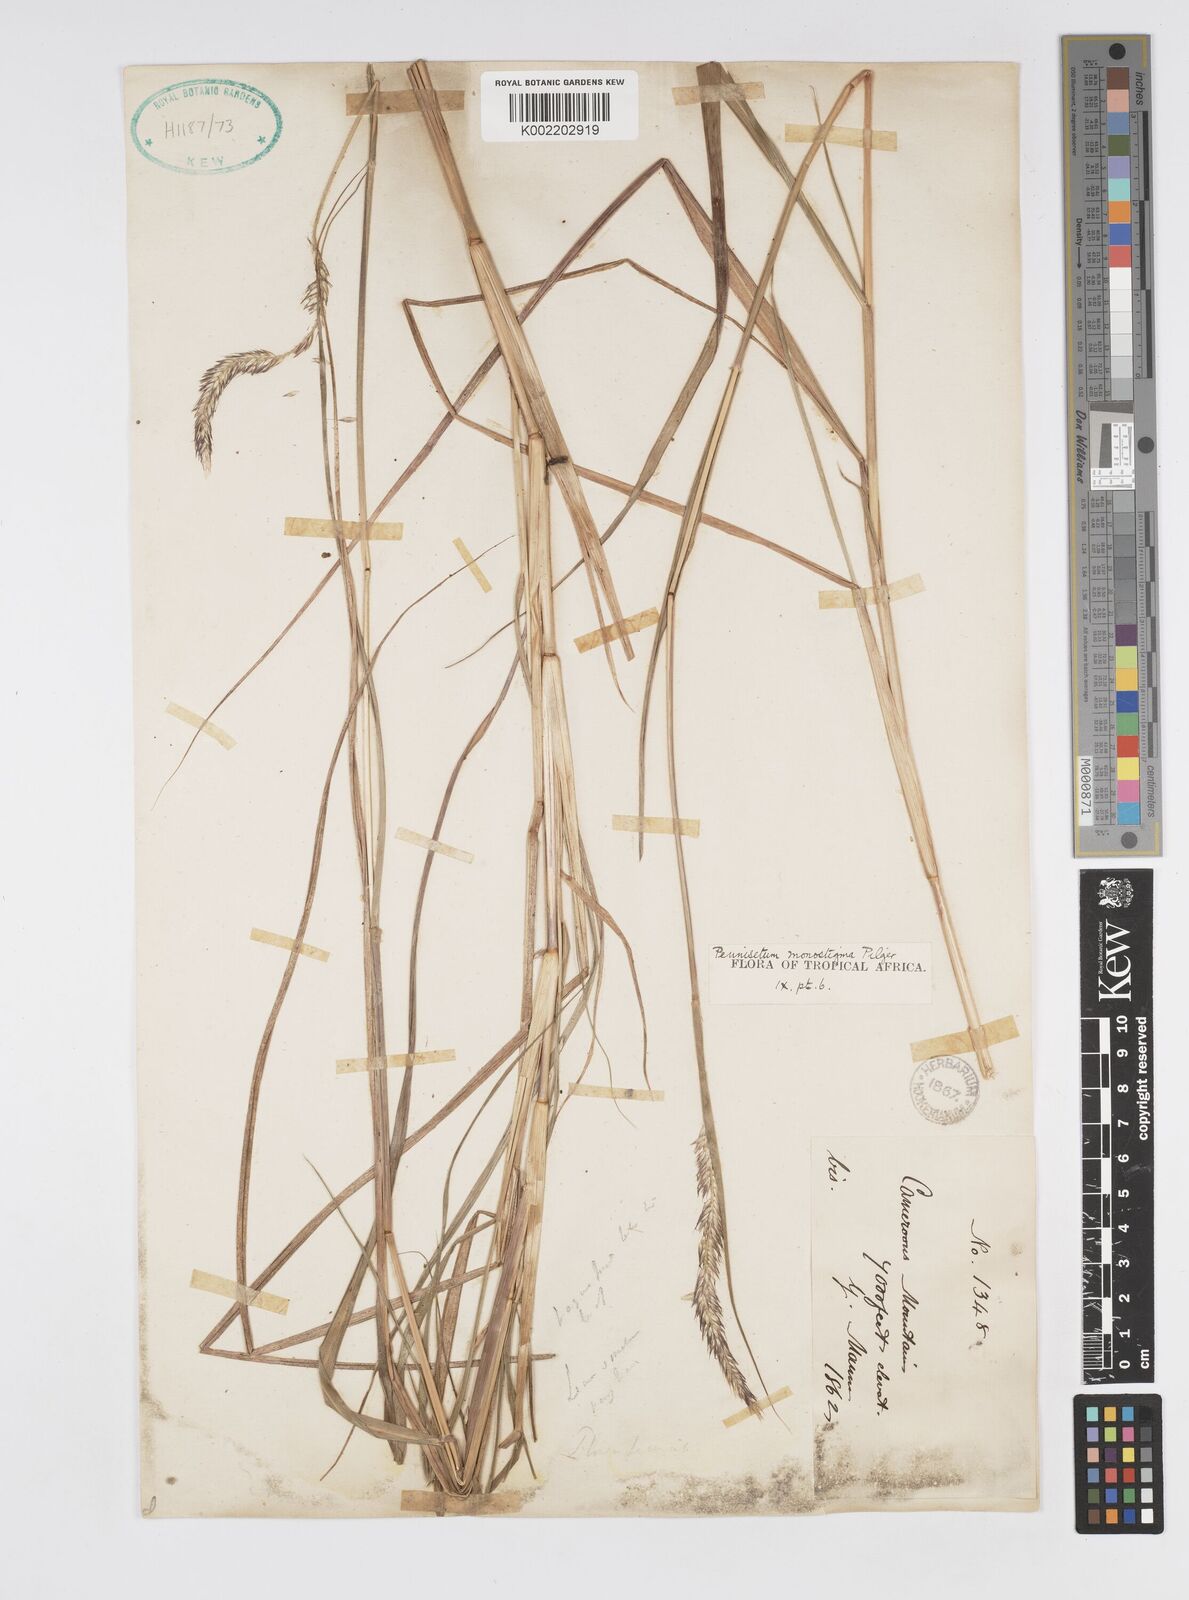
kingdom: Plantae
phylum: Tracheophyta
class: Liliopsida
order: Poales
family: Poaceae
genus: Cenchrus
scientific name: Cenchrus monostigma
